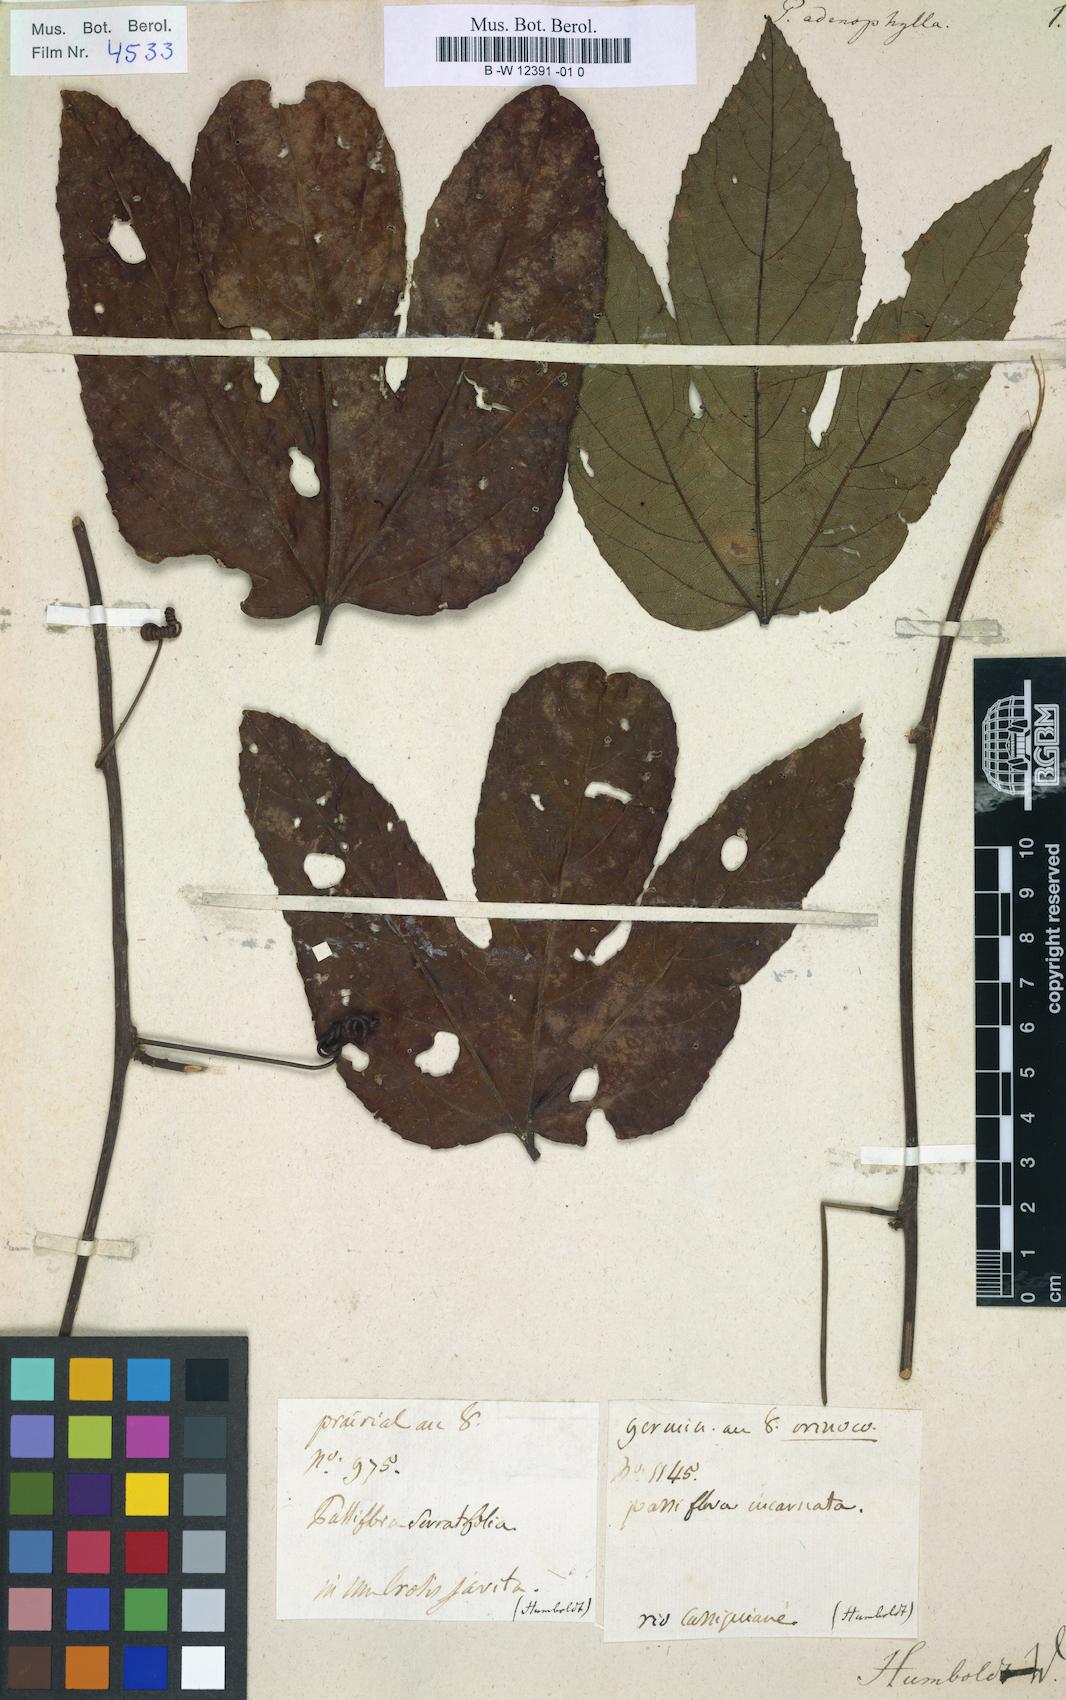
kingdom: Plantae
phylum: Tracheophyta
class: Magnoliopsida
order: Malpighiales
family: Passifloraceae
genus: Passiflora
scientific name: Passiflora subpeltata
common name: White passionflower
